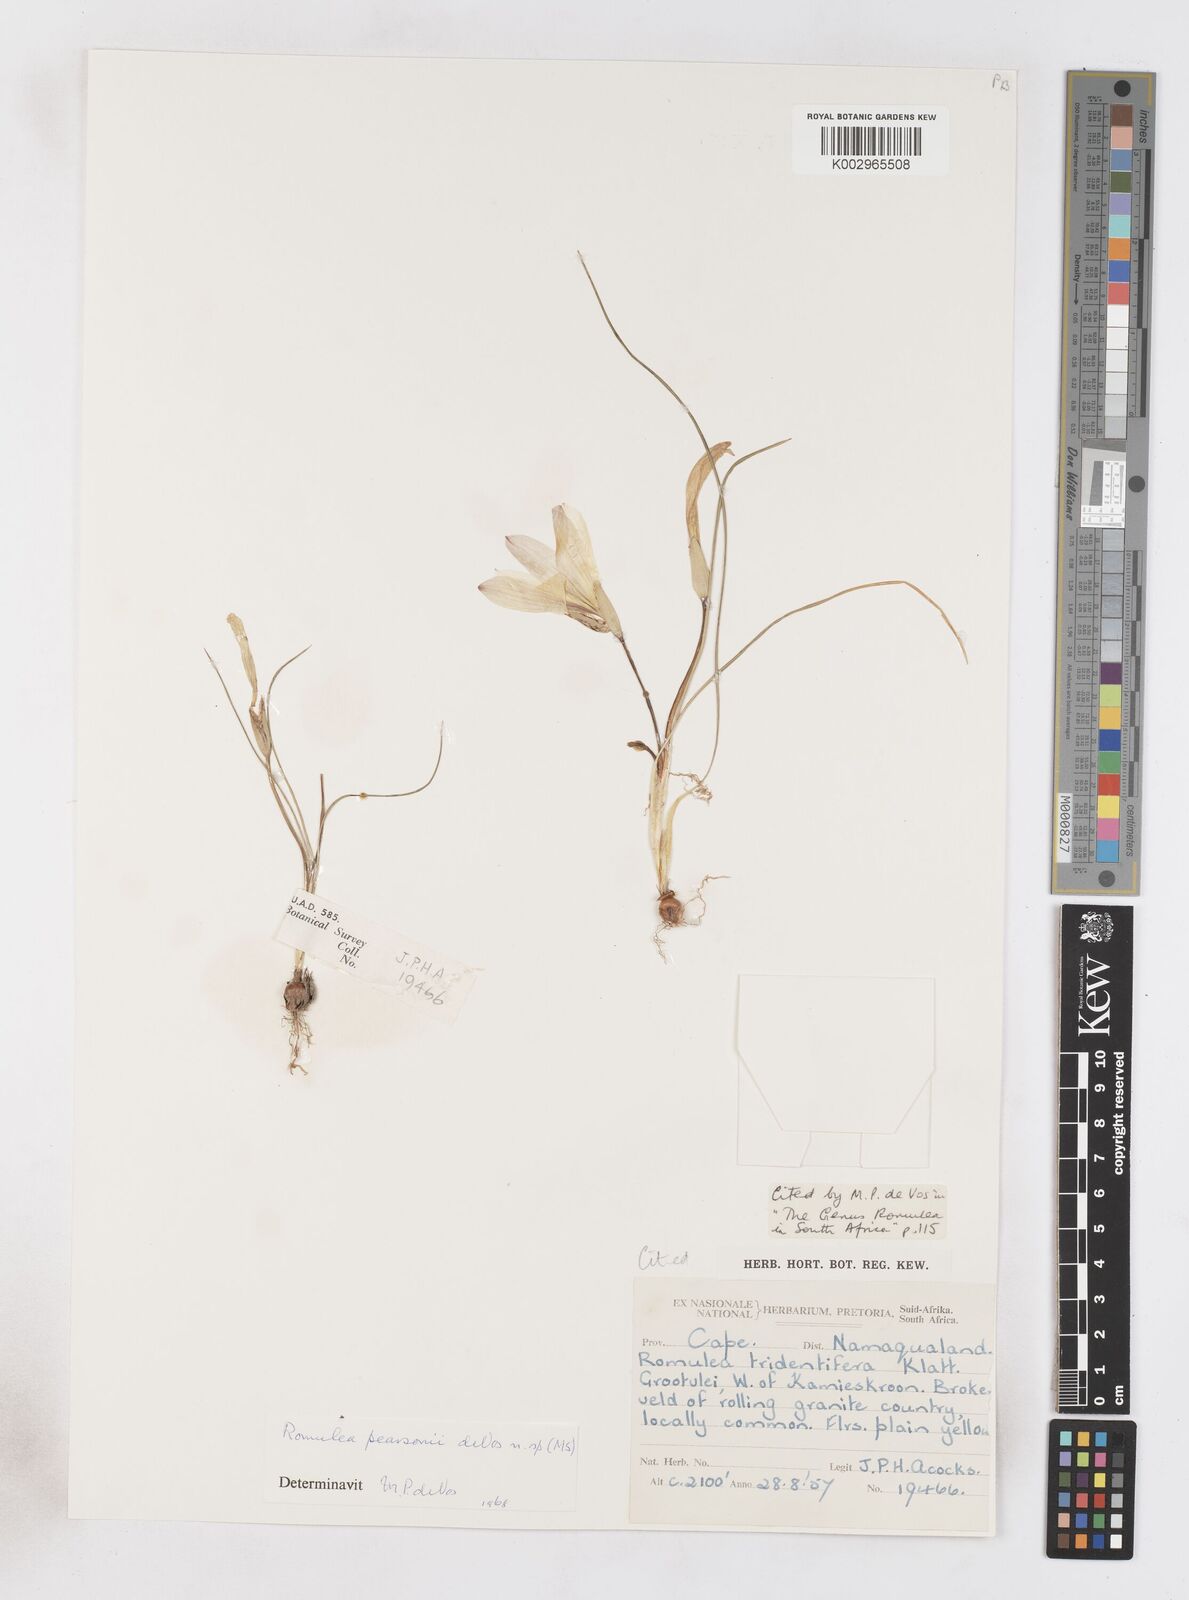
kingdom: Plantae
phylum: Tracheophyta
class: Liliopsida
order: Asparagales
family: Iridaceae
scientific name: Iridaceae
